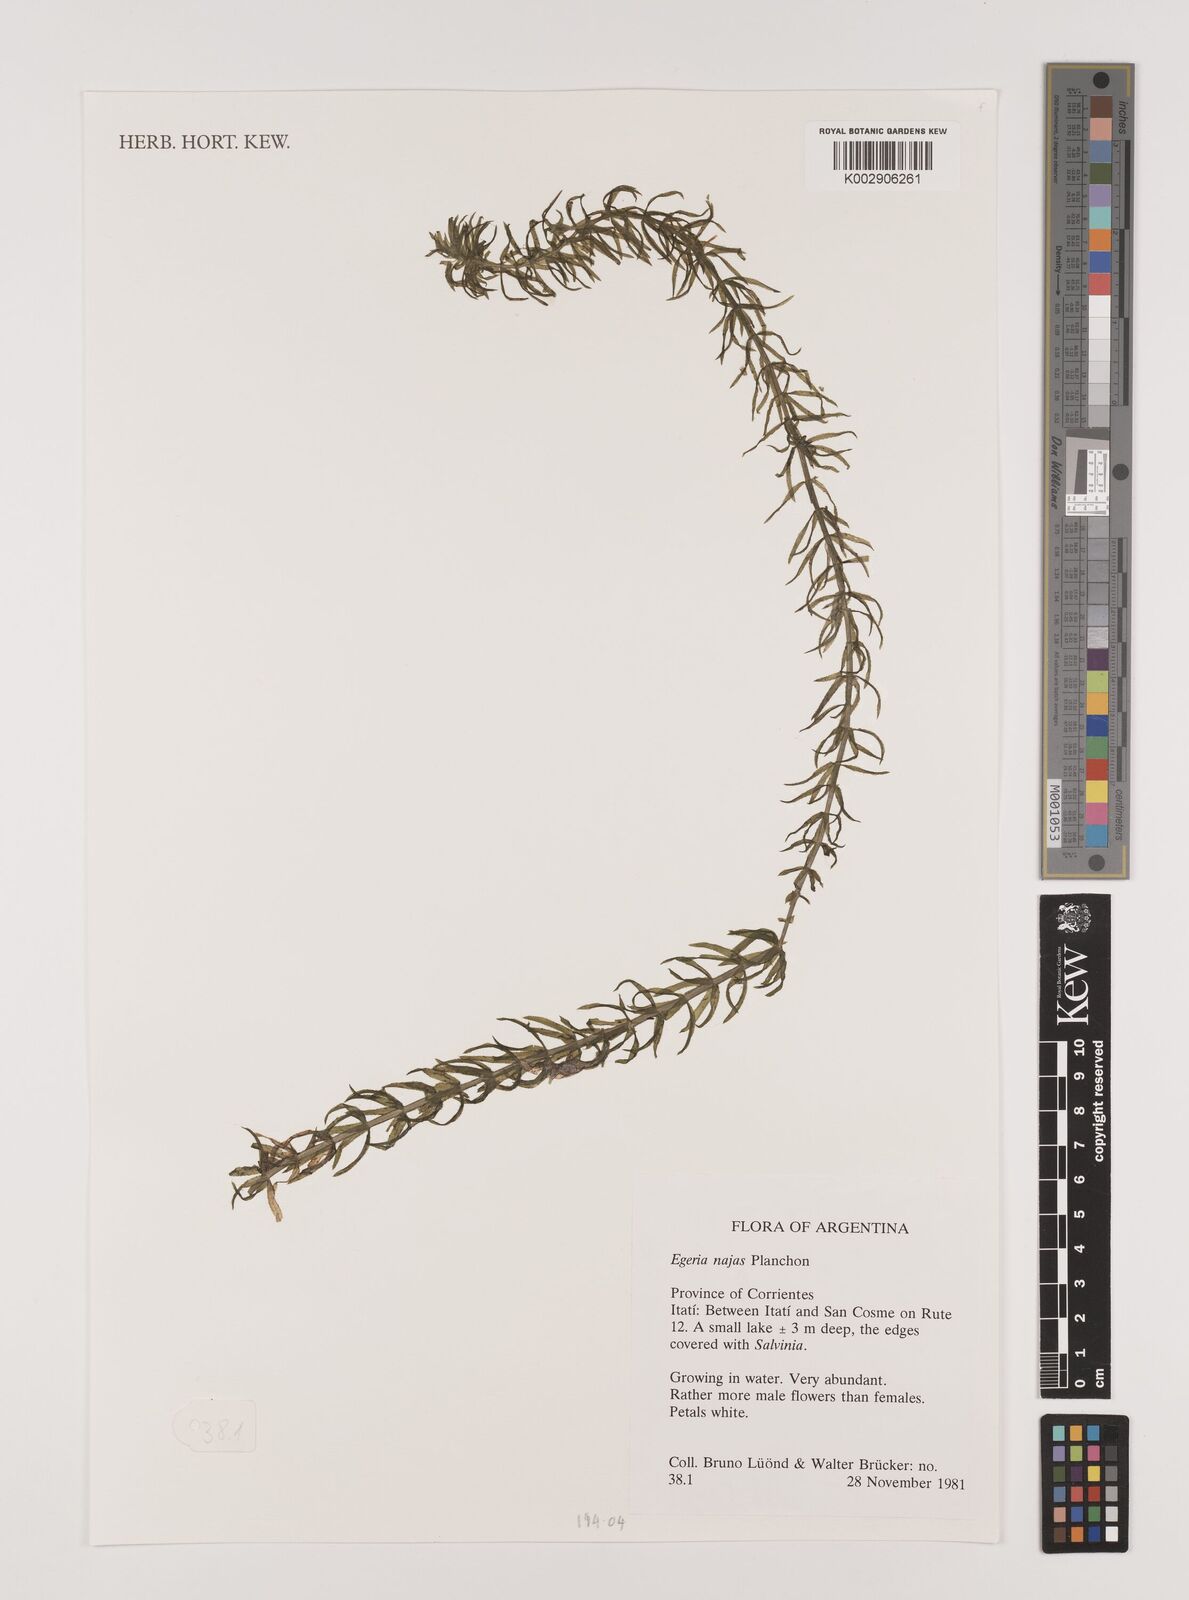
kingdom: Plantae
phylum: Tracheophyta
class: Liliopsida
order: Alismatales
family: Hydrocharitaceae
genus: Elodea
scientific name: Elodea najas
